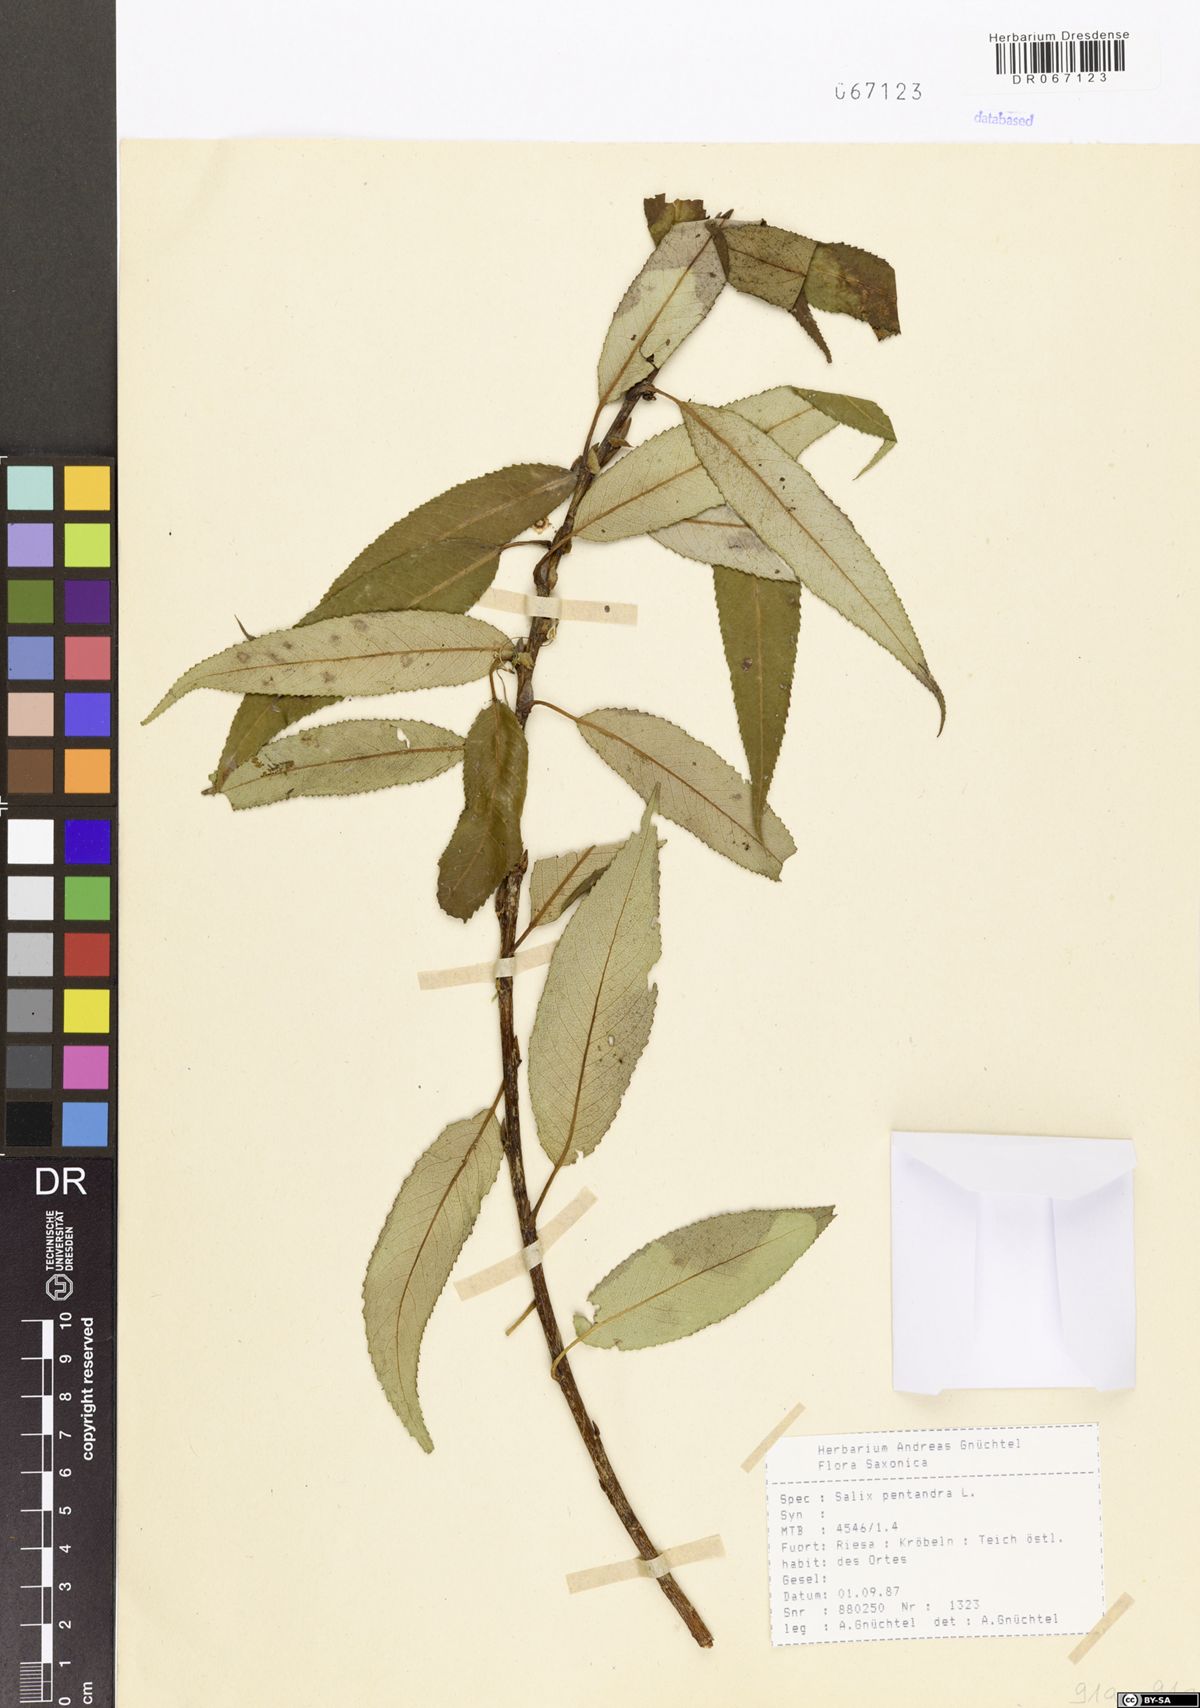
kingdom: Plantae
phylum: Tracheophyta
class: Magnoliopsida
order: Malpighiales
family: Salicaceae
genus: Salix
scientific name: Salix pentandra
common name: Bay willow
